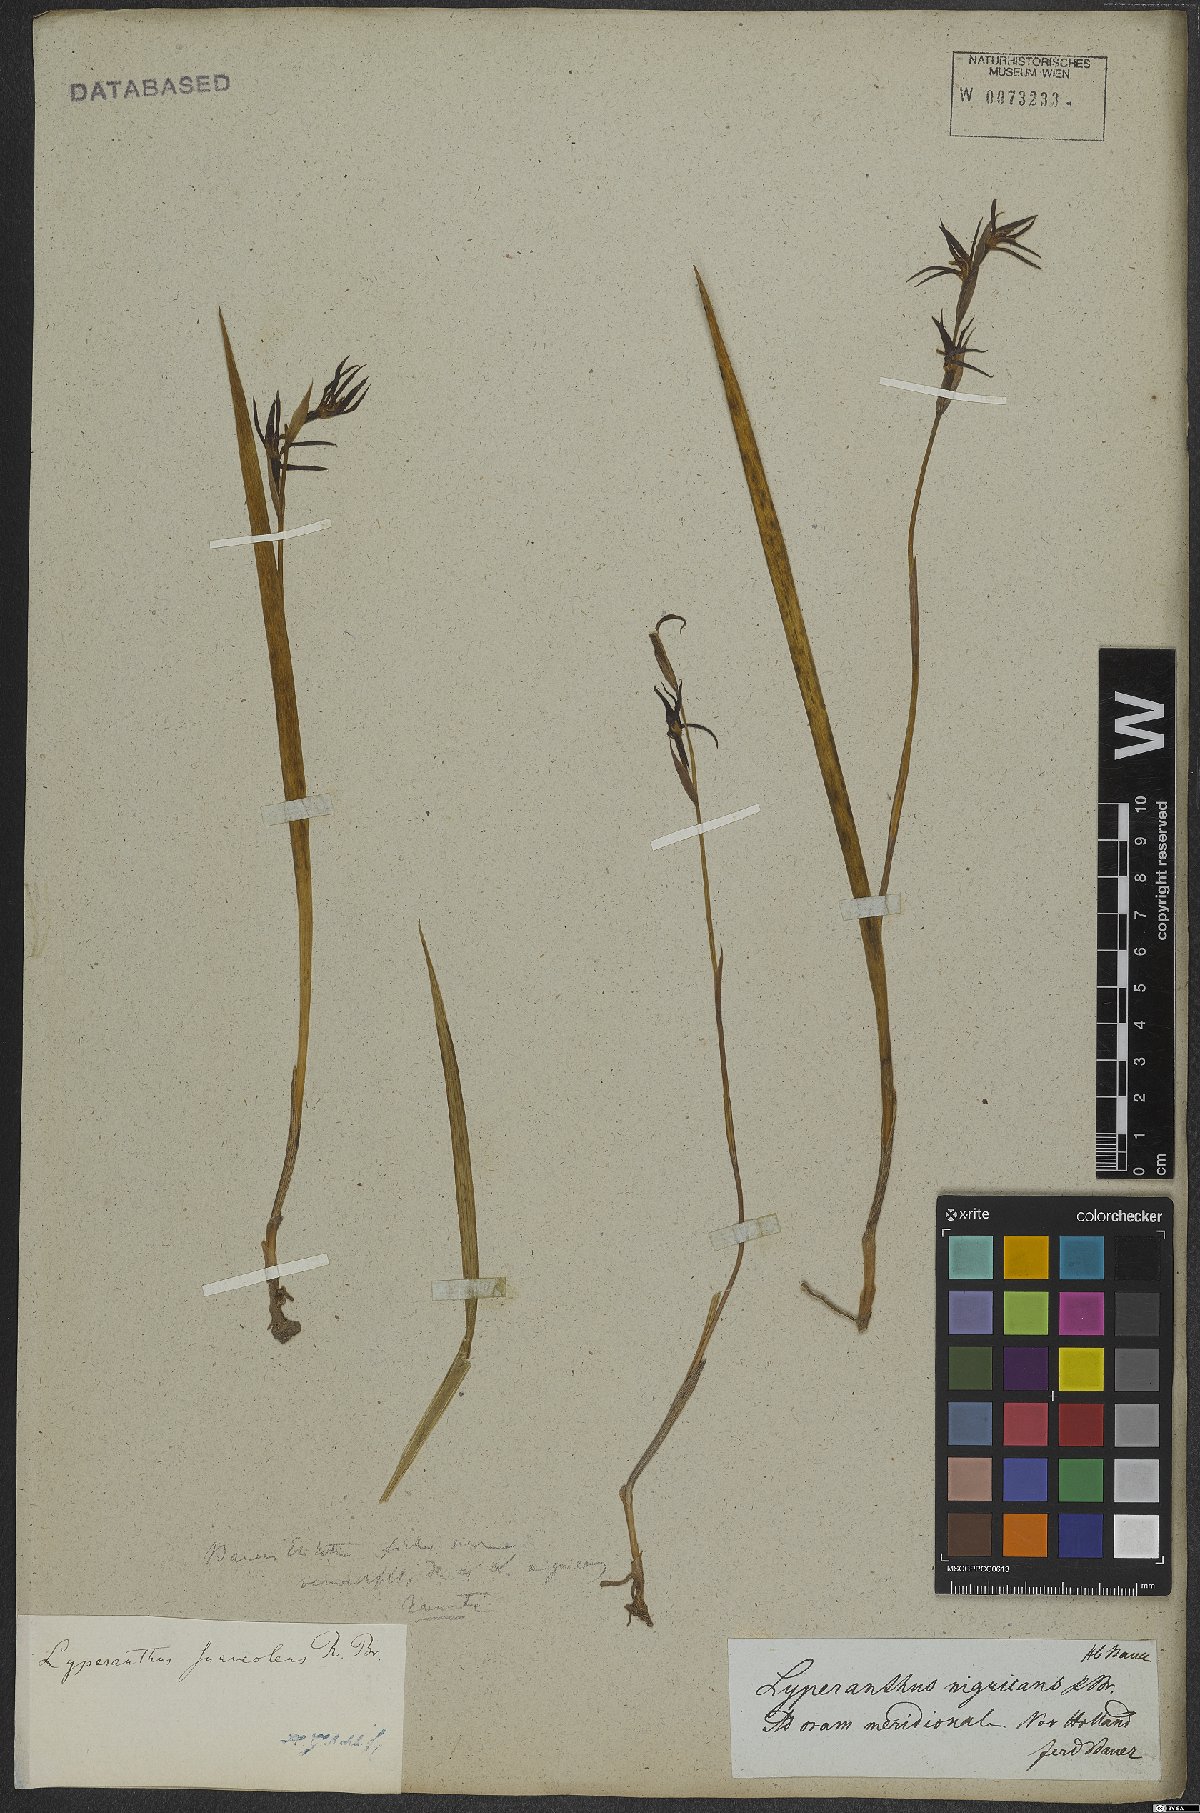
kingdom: Plantae
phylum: Tracheophyta
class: Liliopsida
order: Asparagales
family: Orchidaceae
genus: Lyperanthus
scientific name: Lyperanthus suaveolens
